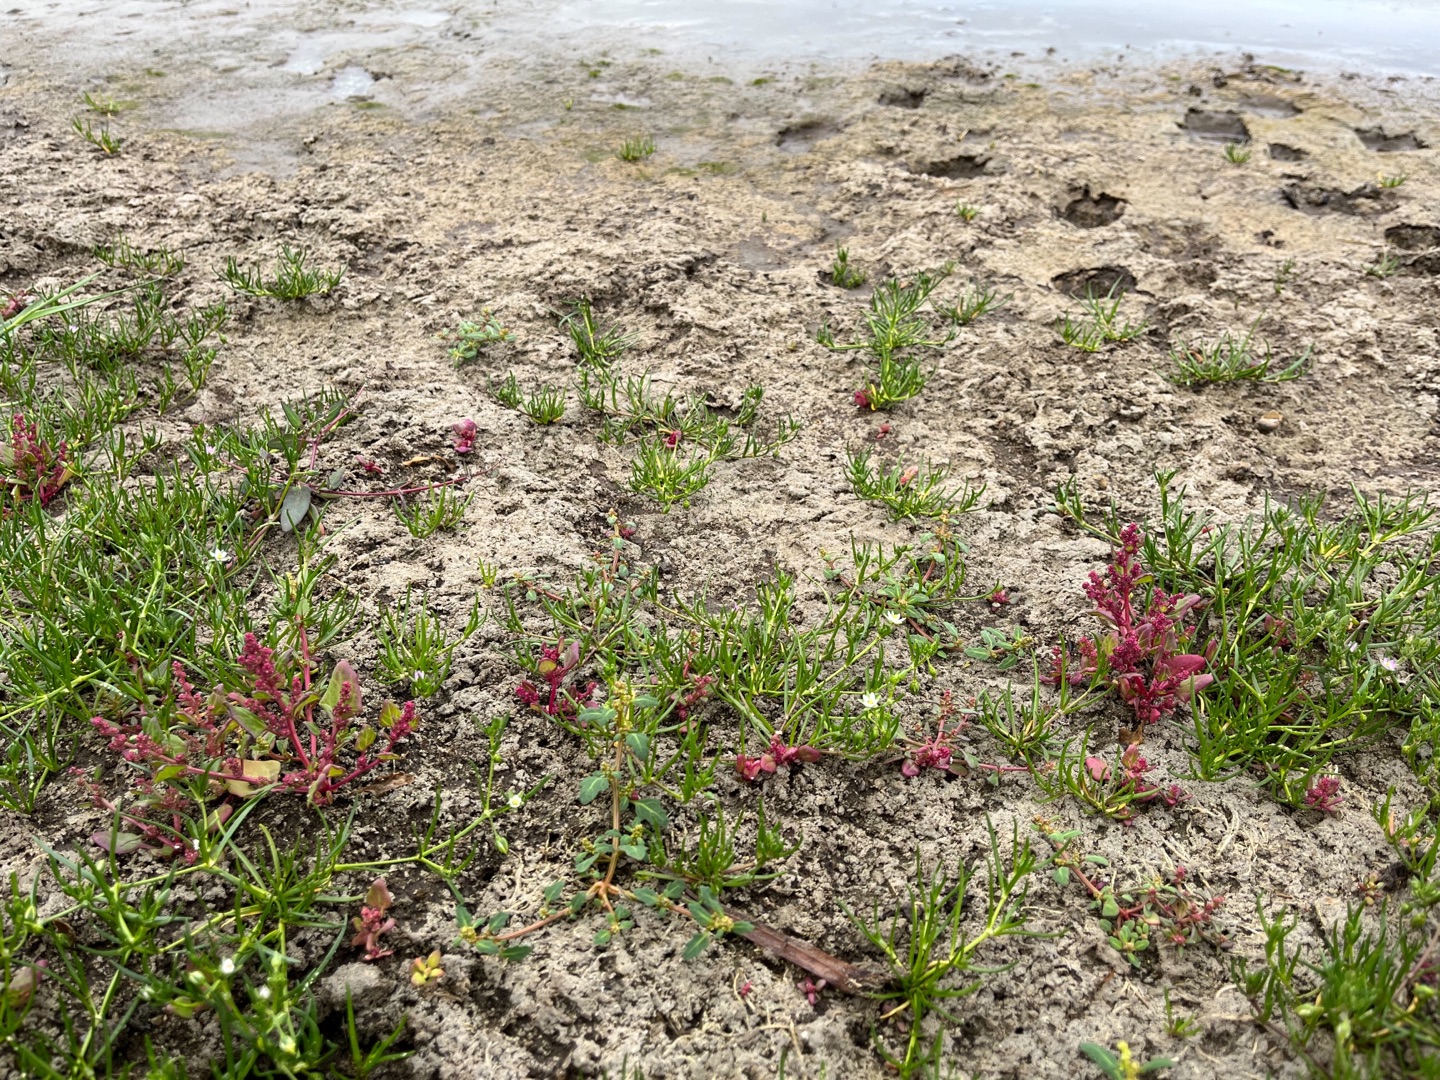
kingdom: Plantae
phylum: Tracheophyta
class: Magnoliopsida
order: Caryophyllales
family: Amaranthaceae
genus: Oxybasis
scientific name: Oxybasis chenopodioides
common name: Drue-gåsefod
